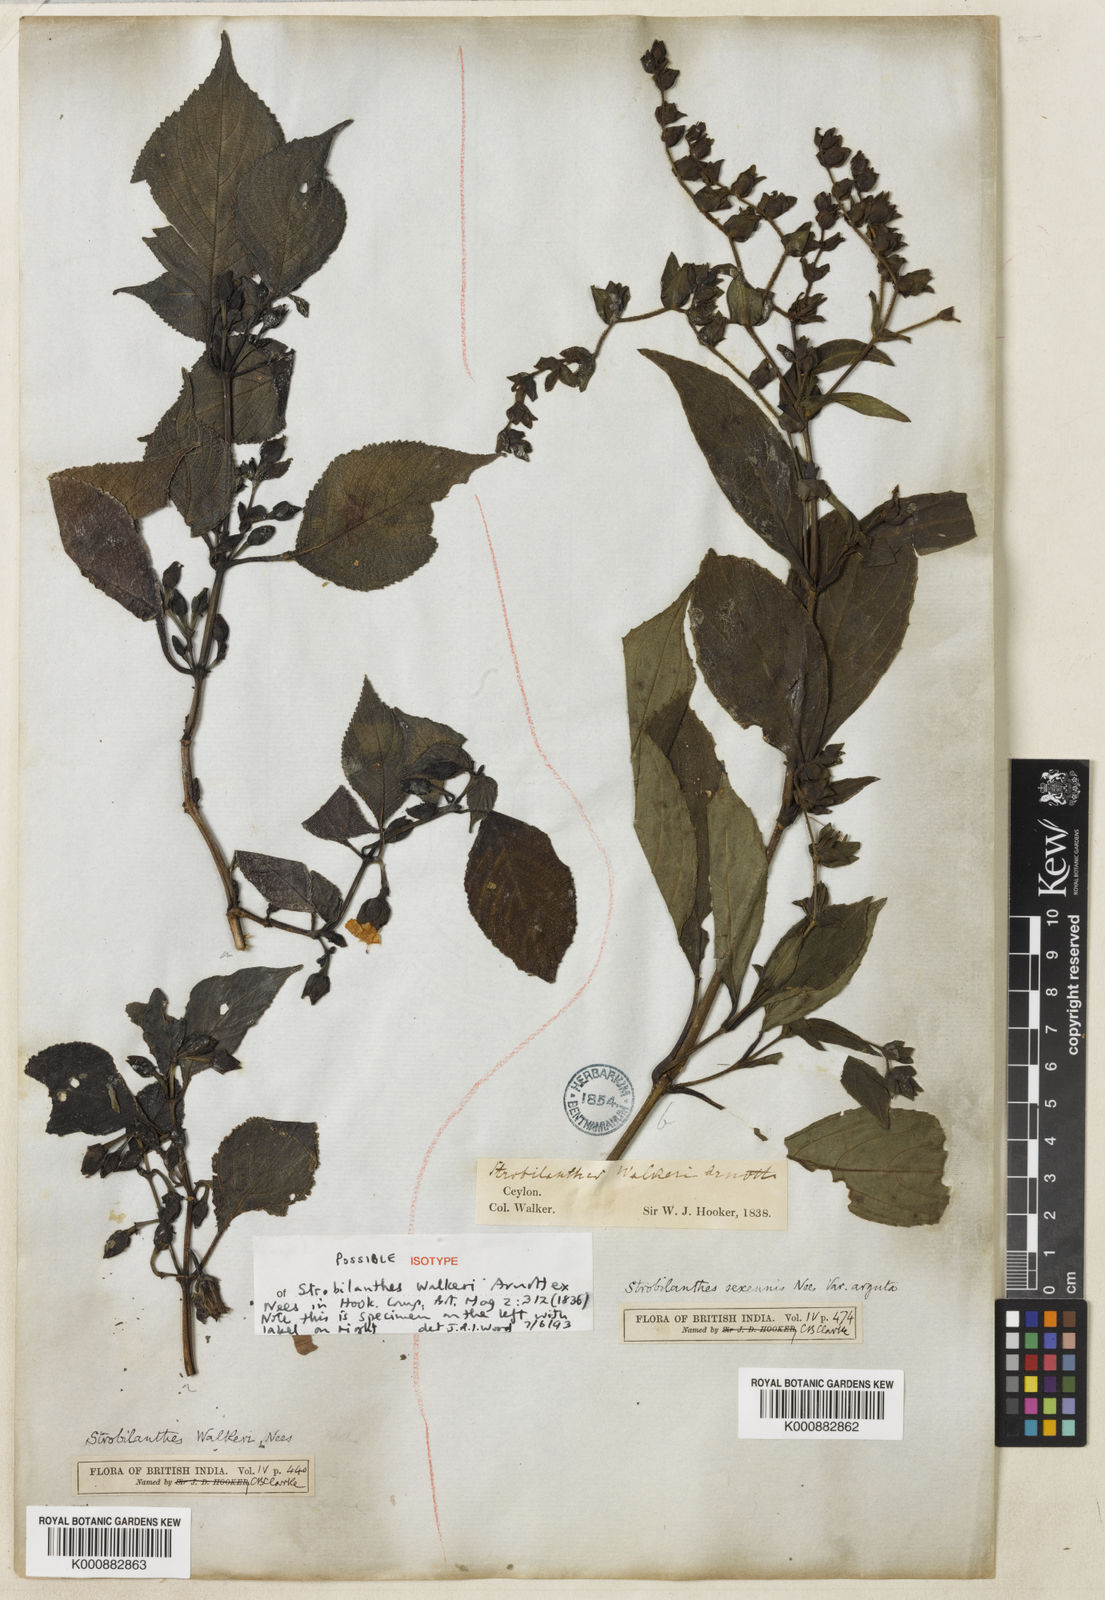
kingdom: Plantae
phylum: Tracheophyta
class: Magnoliopsida
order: Lamiales
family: Acanthaceae
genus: Strobilanthes
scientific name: Strobilanthes walkeri
